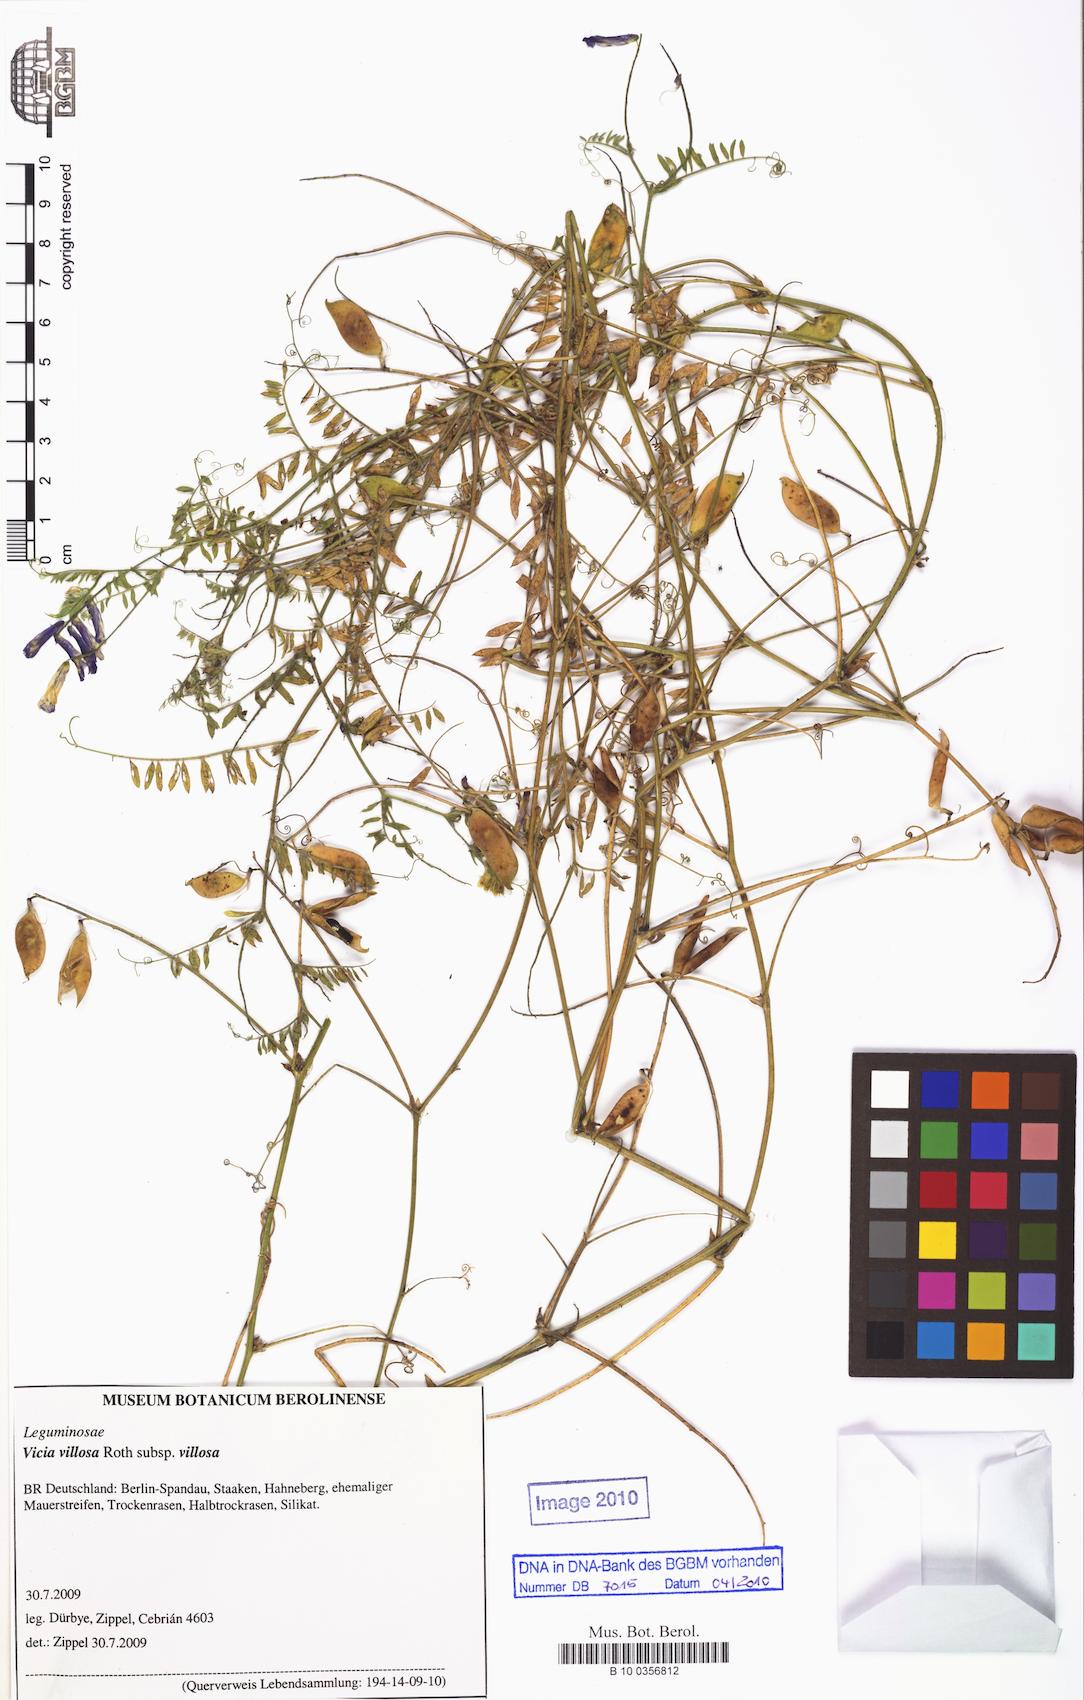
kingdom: Plantae
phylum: Tracheophyta
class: Magnoliopsida
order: Fabales
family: Fabaceae
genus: Vicia
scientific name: Vicia villosa
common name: Fodder vetch
